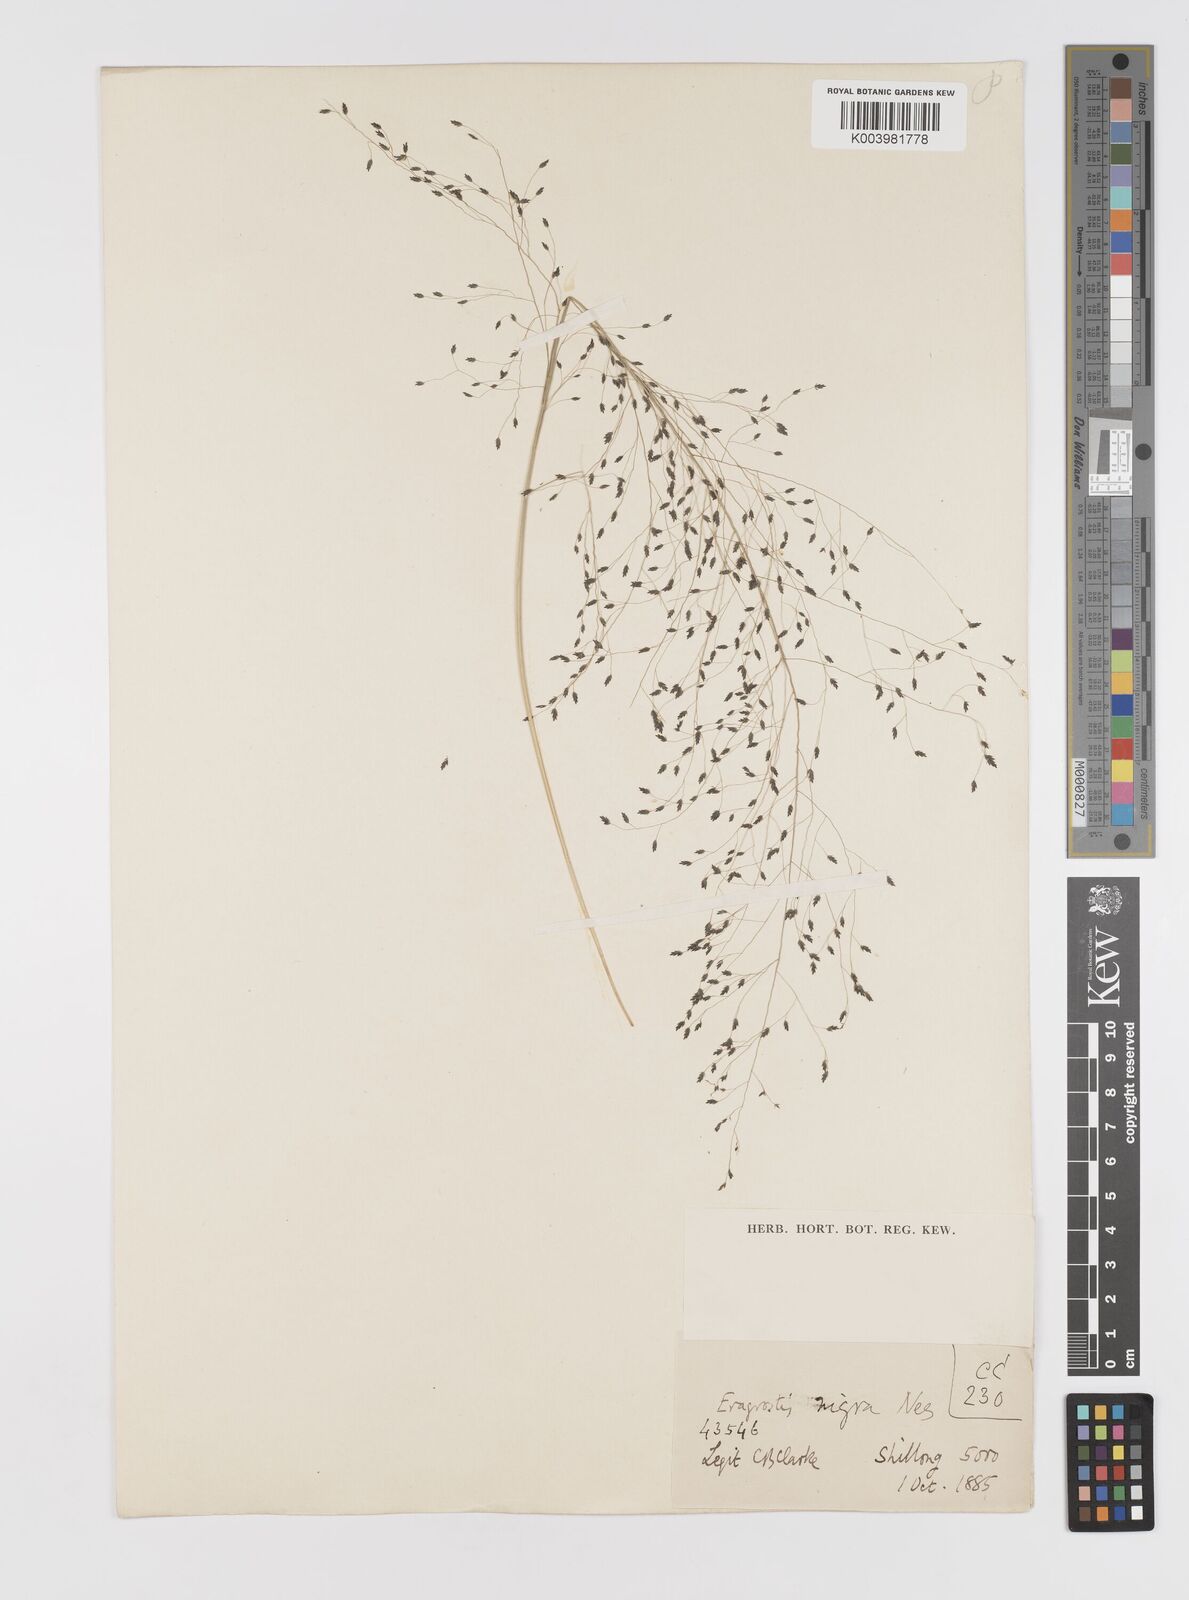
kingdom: Plantae
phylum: Tracheophyta
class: Liliopsida
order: Poales
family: Poaceae
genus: Eragrostis
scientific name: Eragrostis nigra
